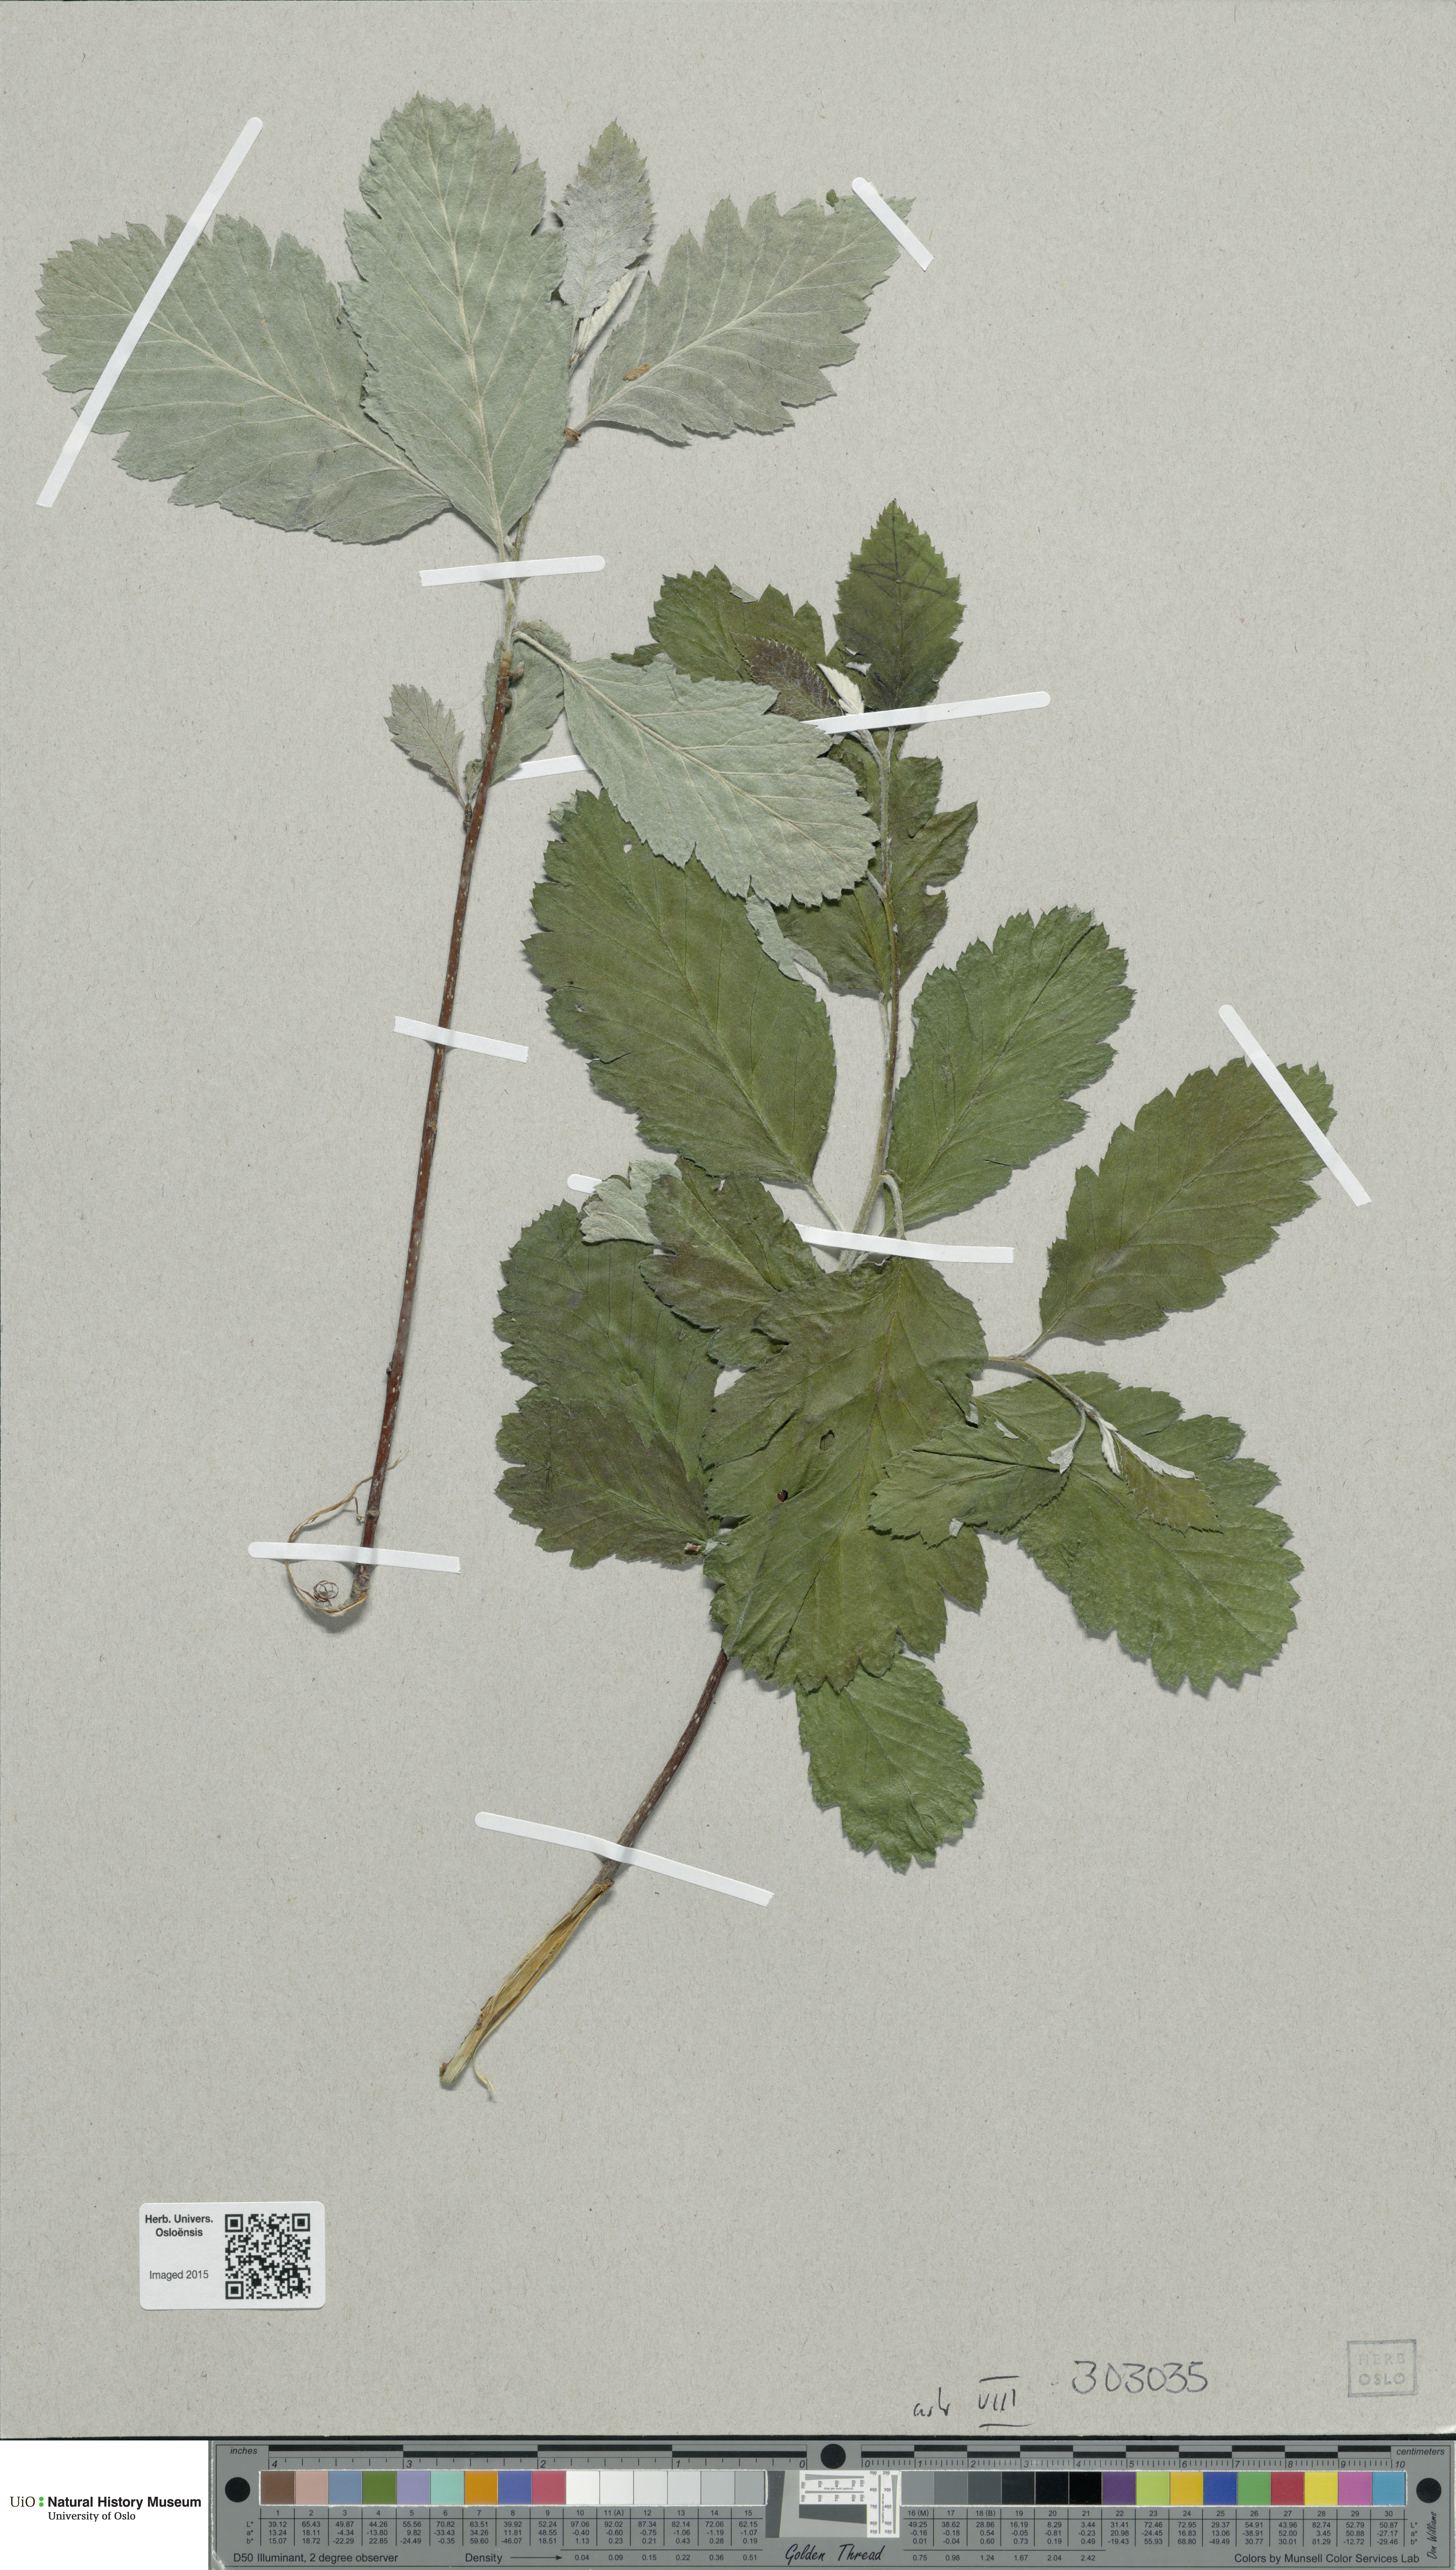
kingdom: Plantae
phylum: Tracheophyta
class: Magnoliopsida
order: Rosales
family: Rosaceae
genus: Hedlundia
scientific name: Hedlundia subsimilis
